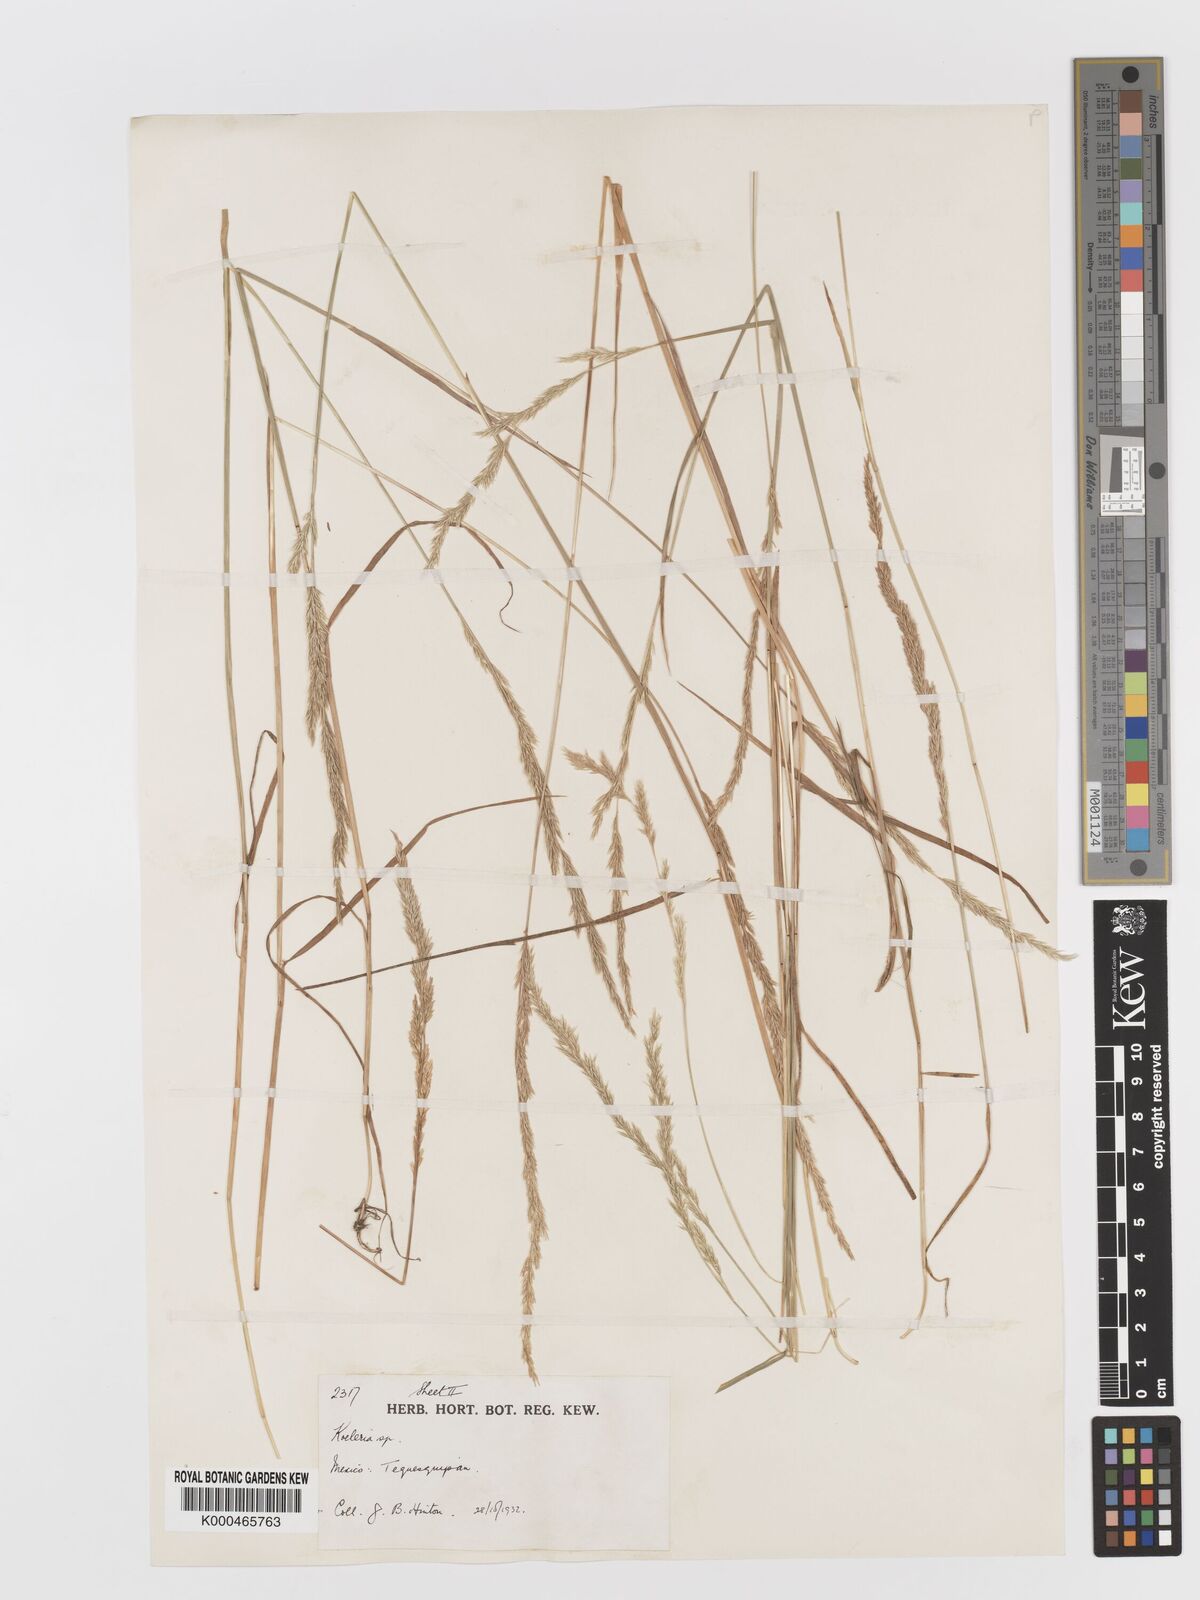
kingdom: Plantae
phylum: Tracheophyta
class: Liliopsida
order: Poales
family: Poaceae
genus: Koeleria
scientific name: Koeleria
